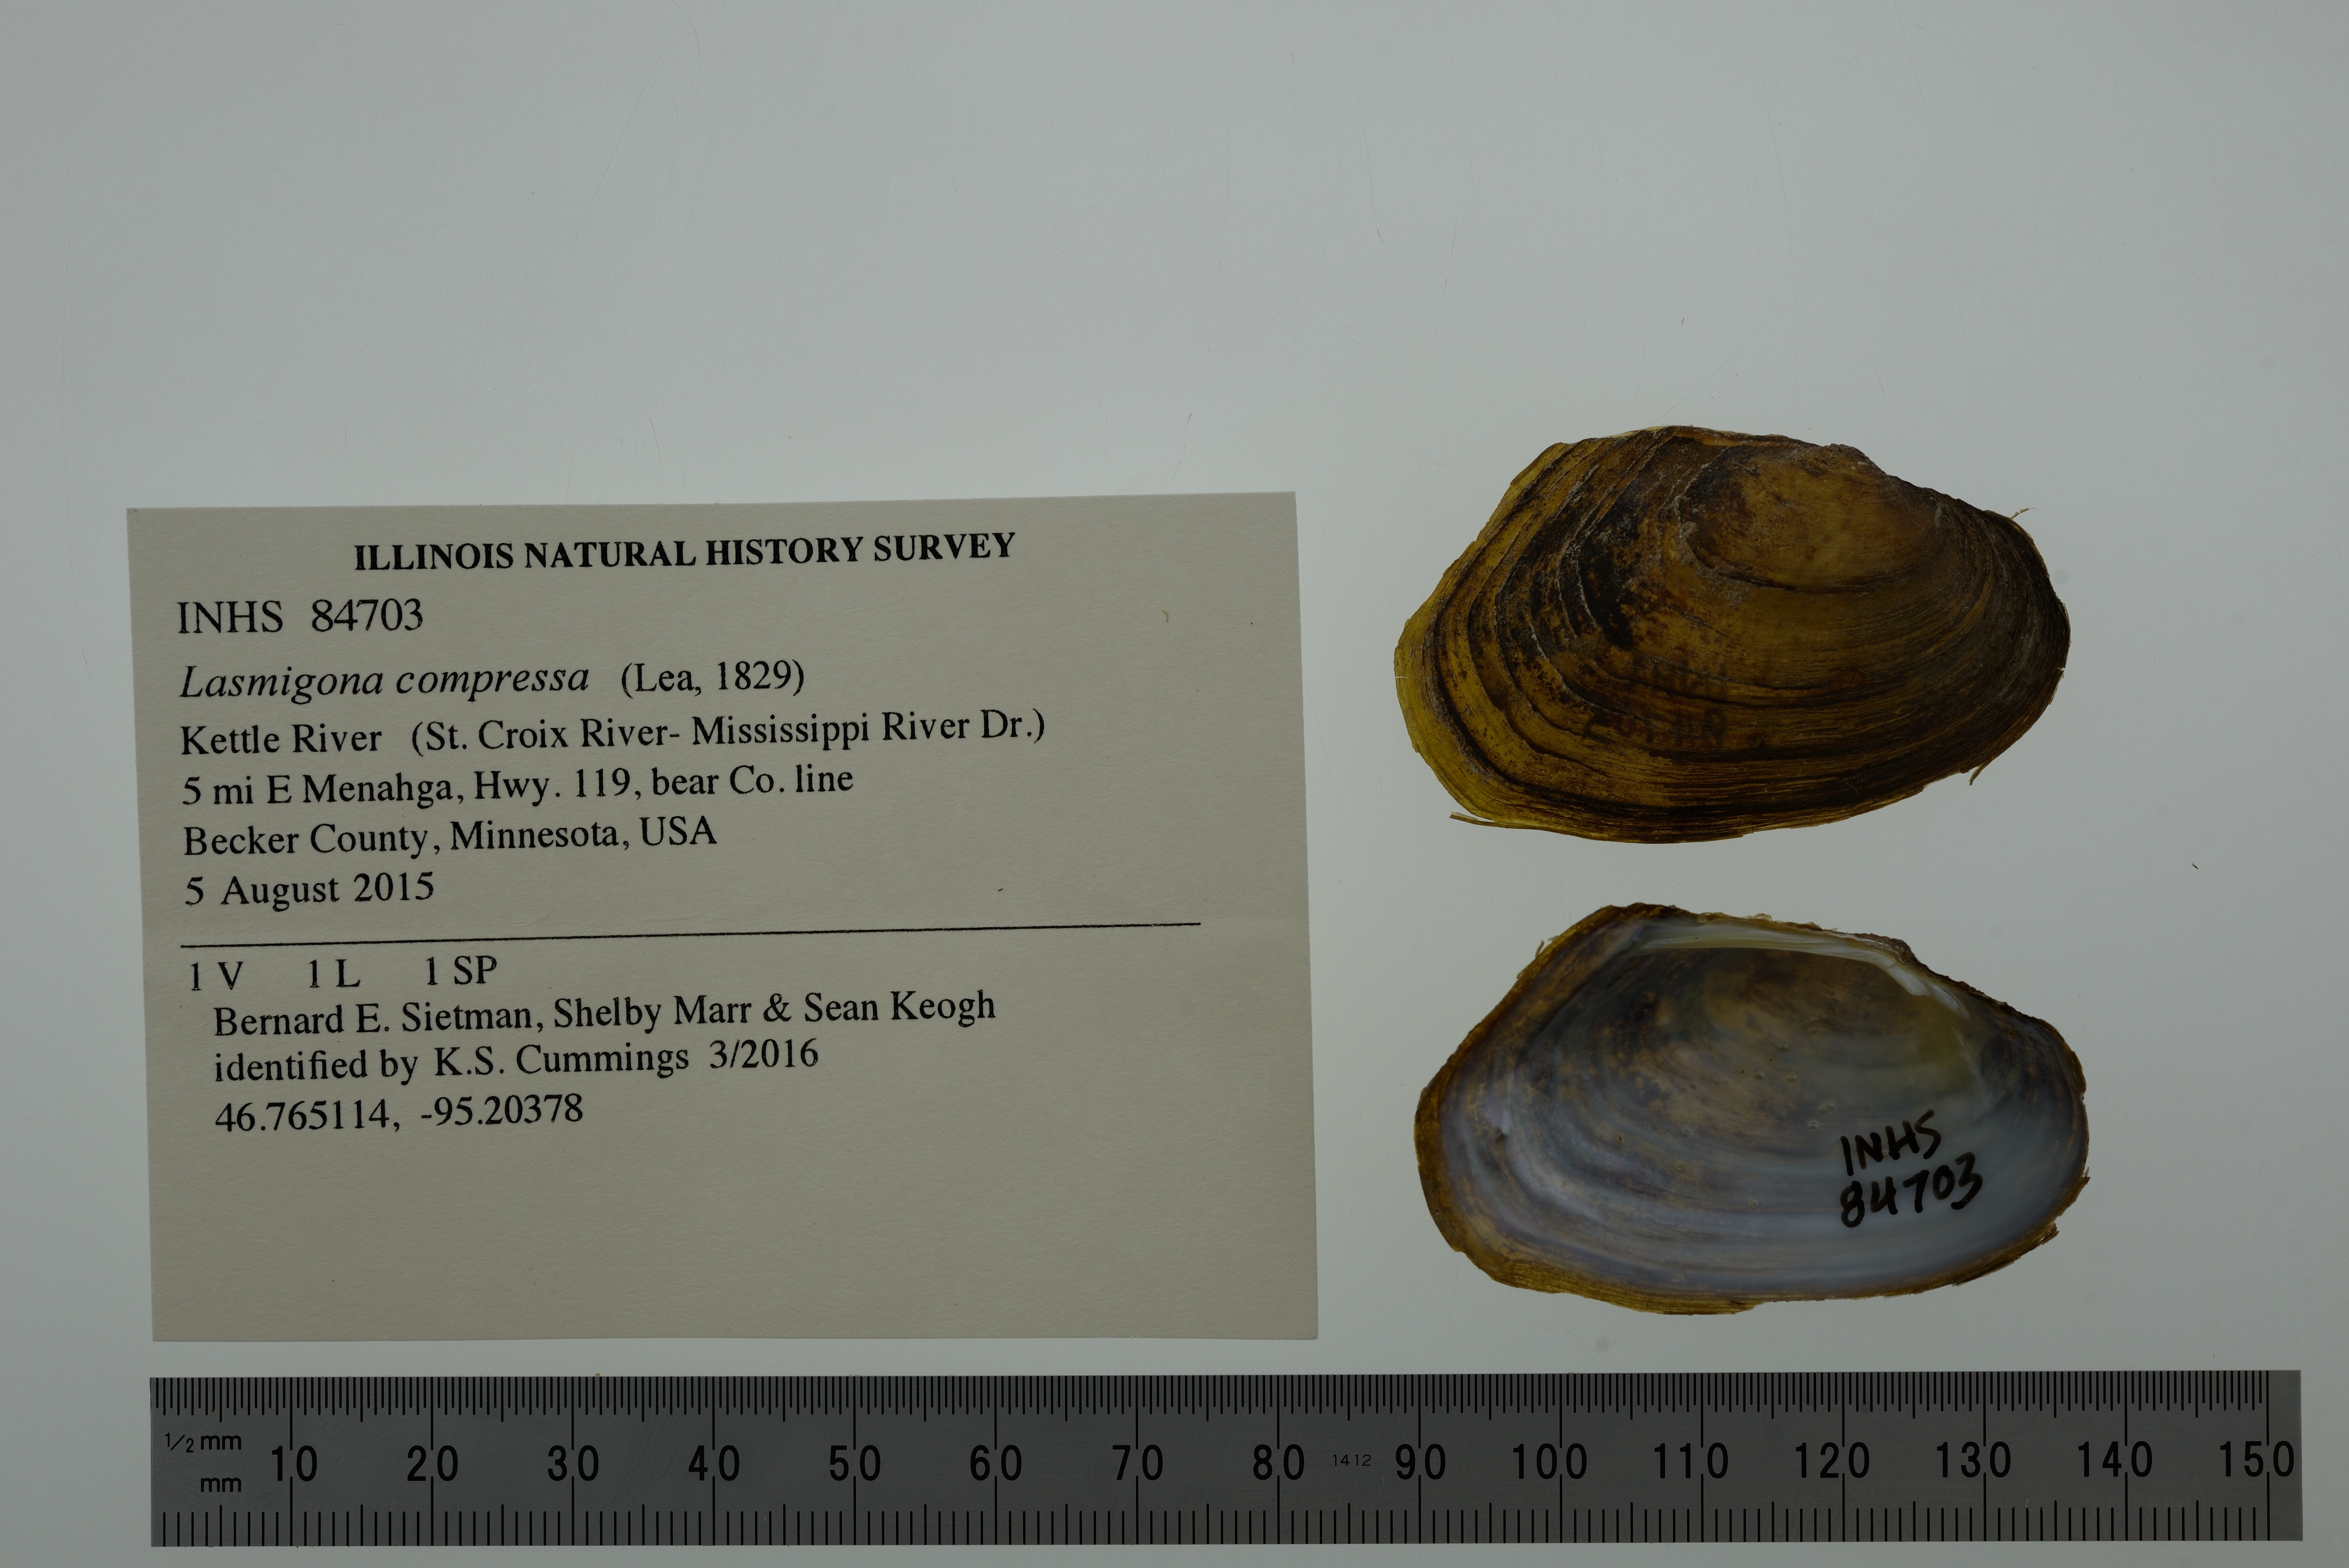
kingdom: Animalia
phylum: Mollusca
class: Bivalvia
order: Unionida
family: Unionidae
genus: Lasmigona
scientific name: Lasmigona compressa
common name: Creek heelsplitter
